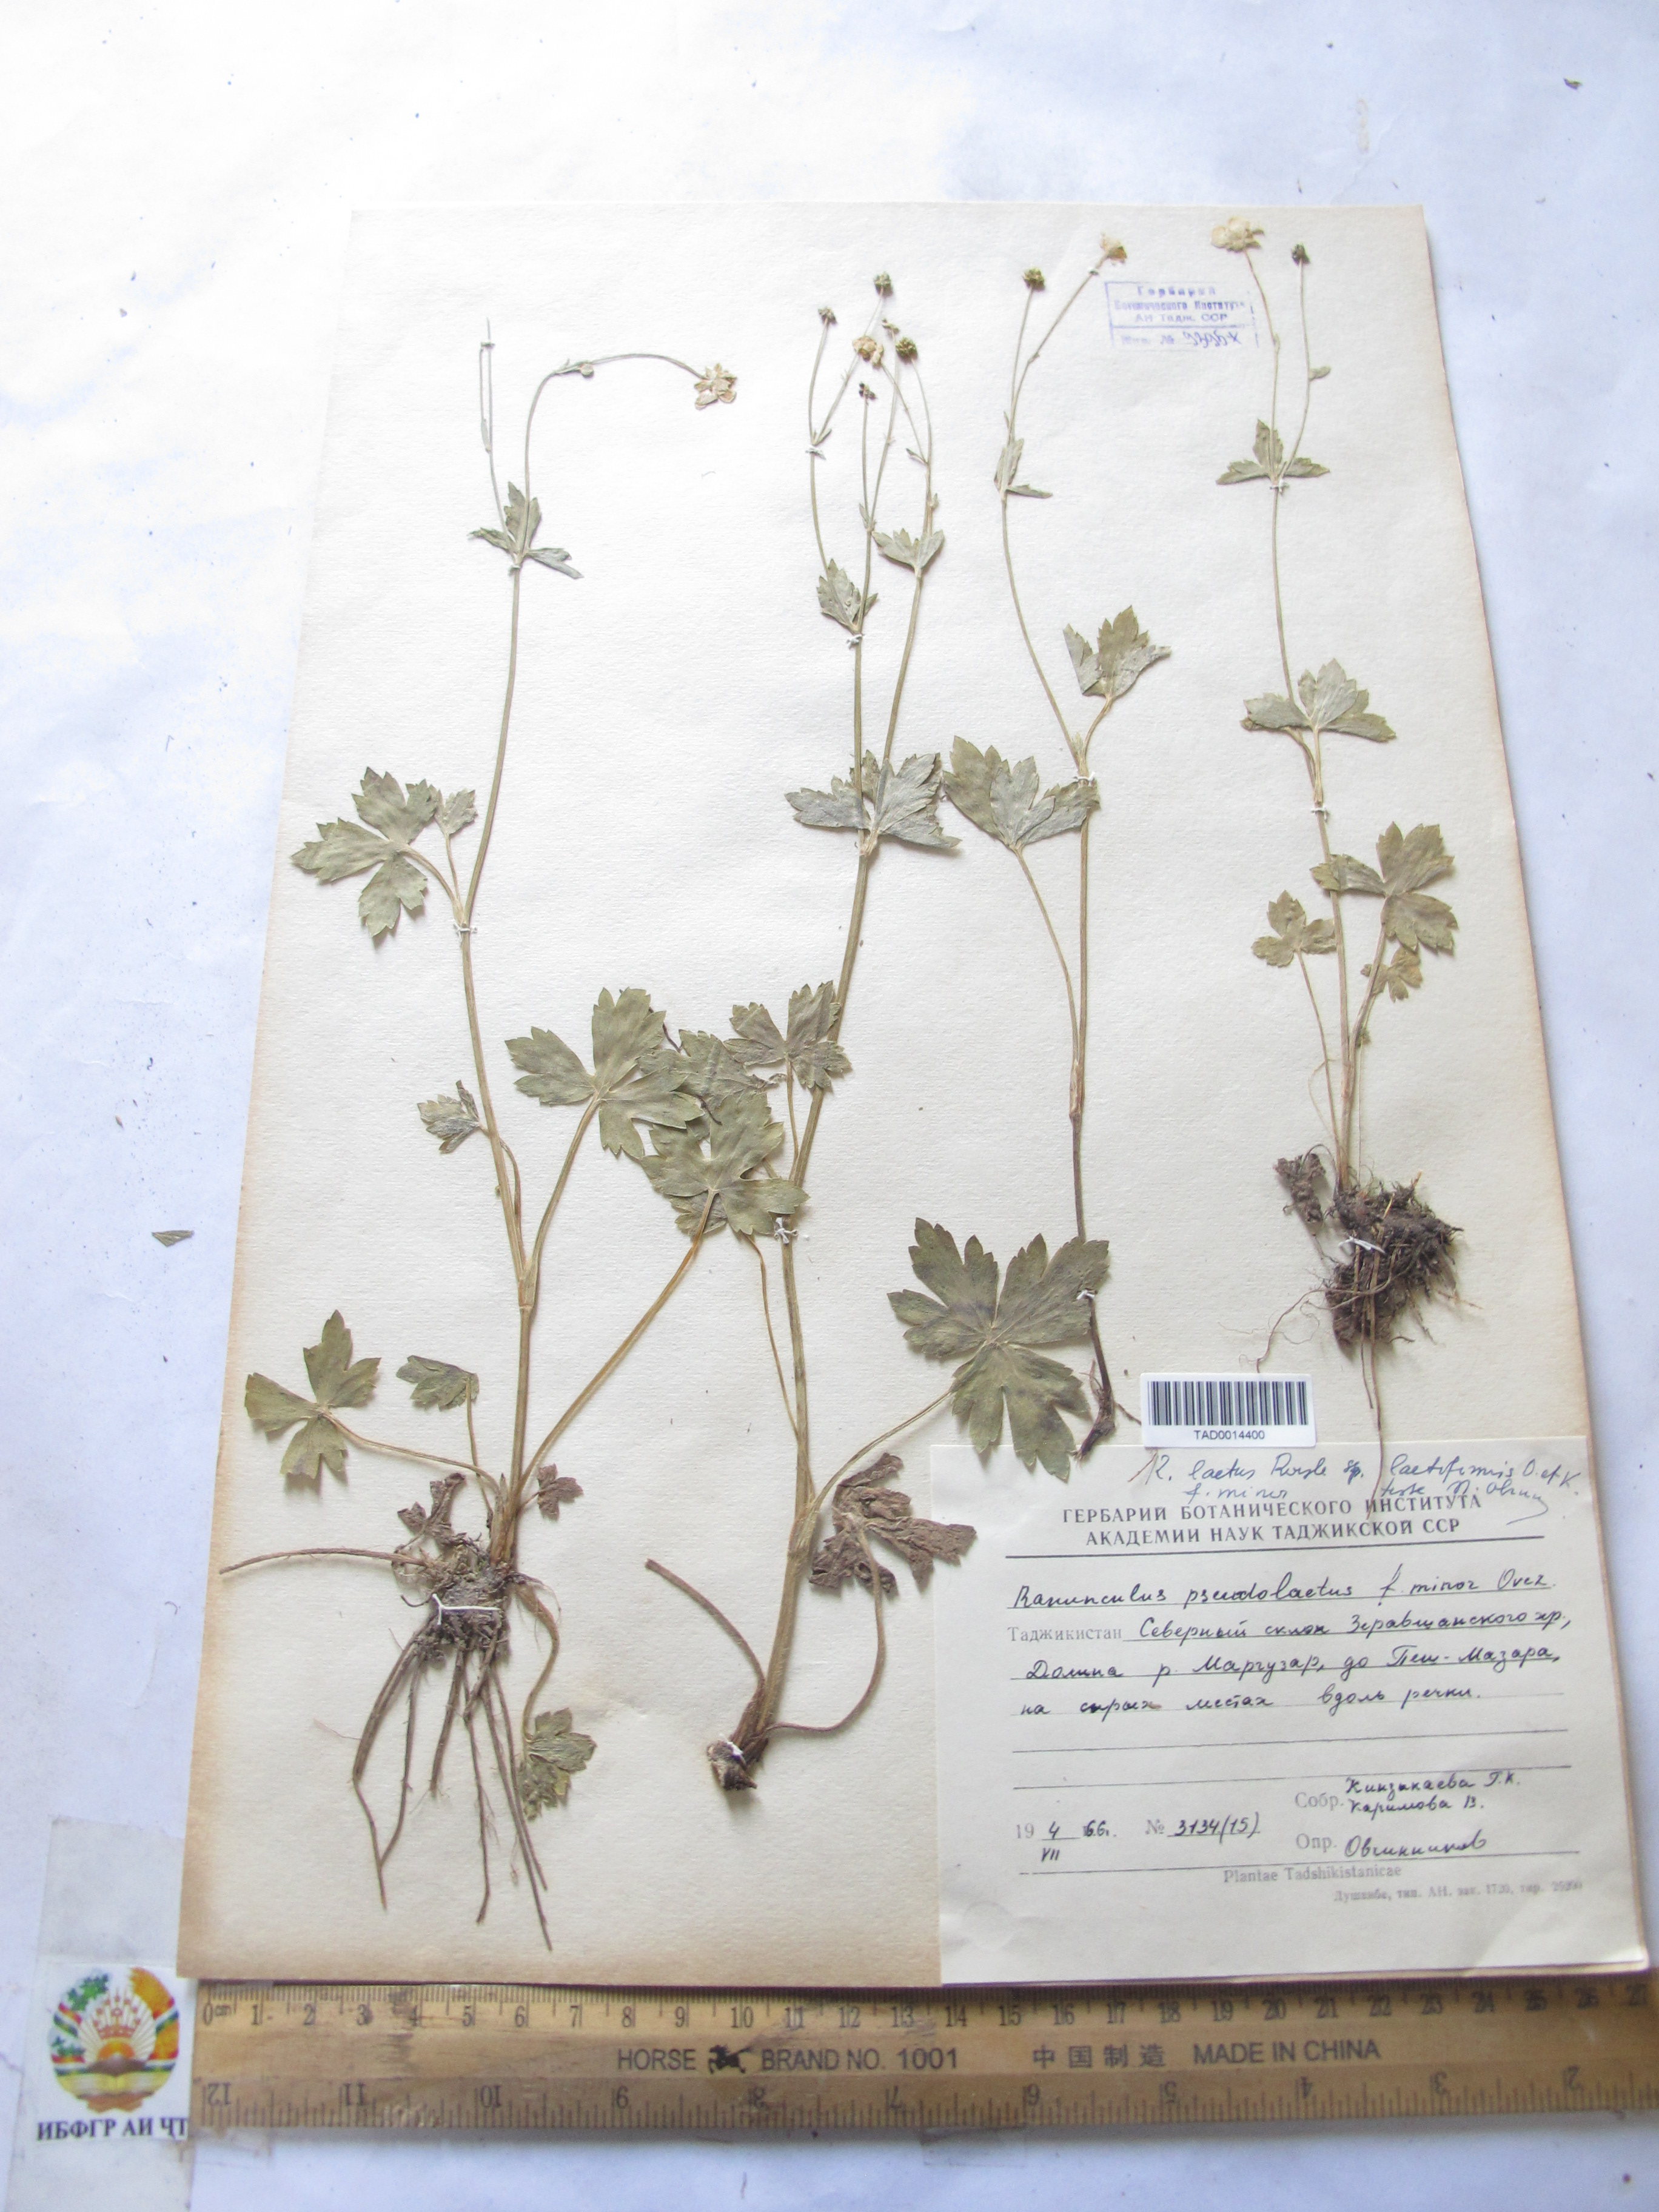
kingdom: Plantae
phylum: Tracheophyta
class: Magnoliopsida
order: Ranunculales
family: Ranunculaceae
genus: Ranunculus
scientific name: Ranunculus distans
